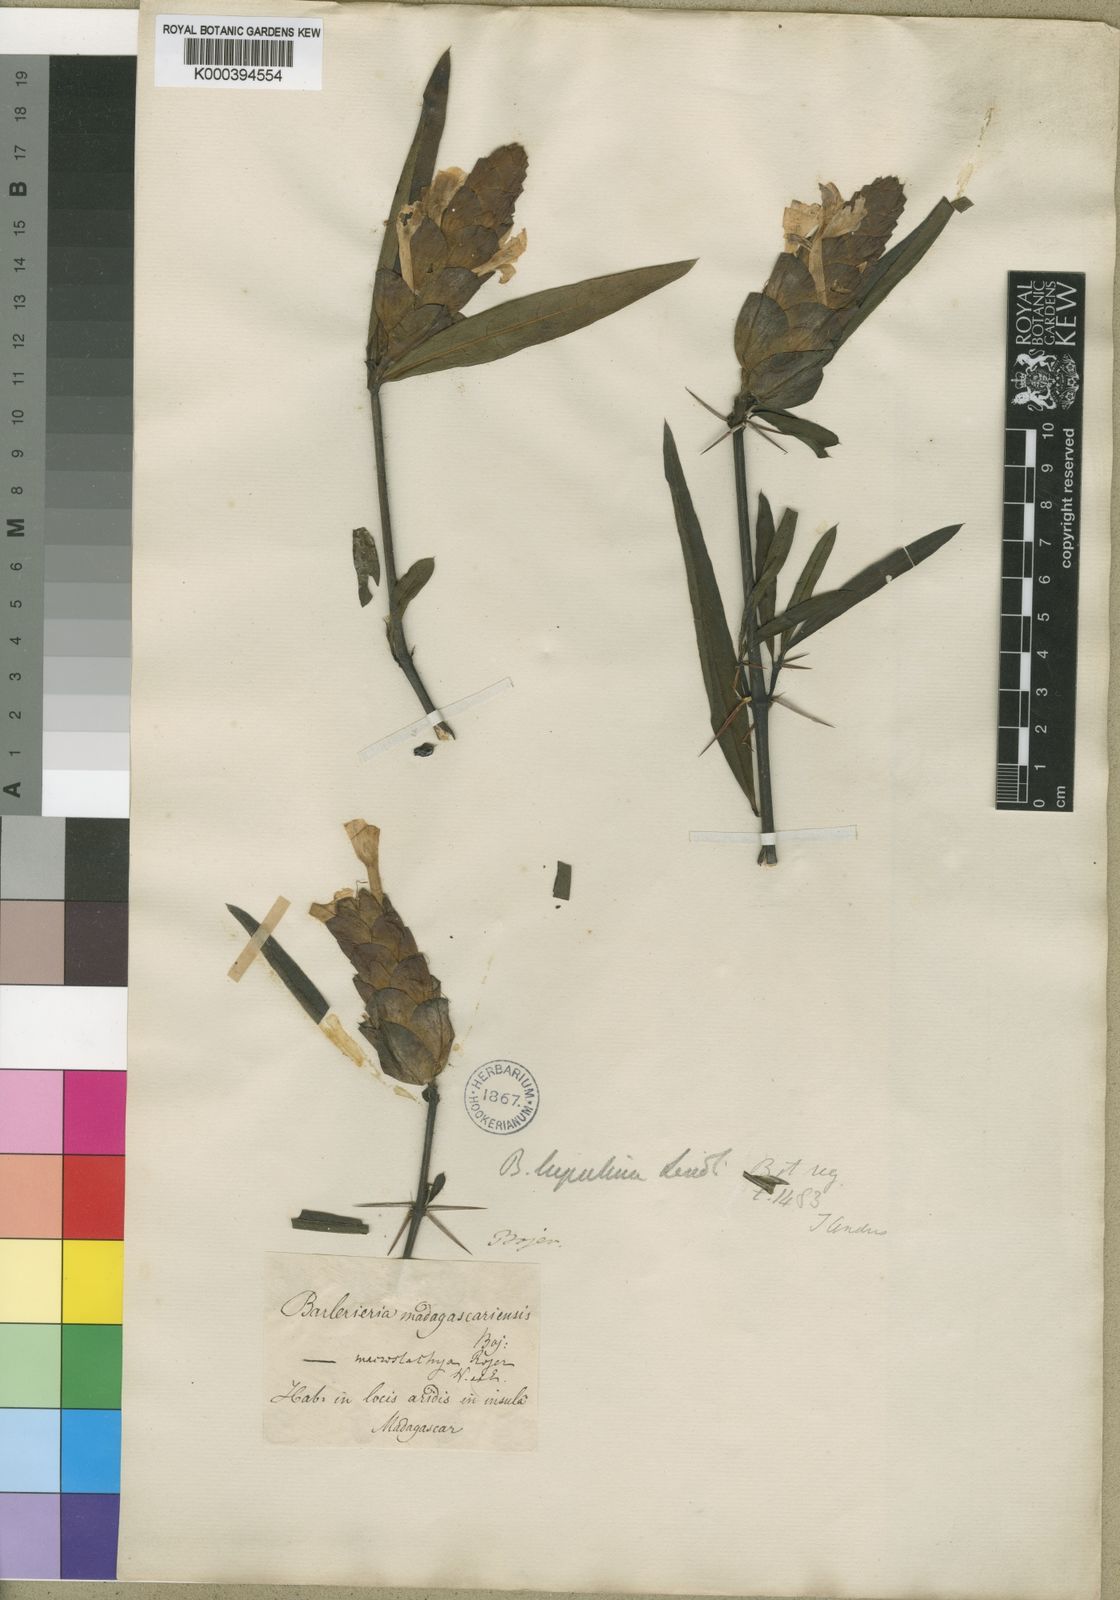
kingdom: Plantae
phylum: Tracheophyta
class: Magnoliopsida
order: Lamiales
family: Acanthaceae
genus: Barleria
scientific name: Barleria lupulina
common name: Hophead philippine violet
